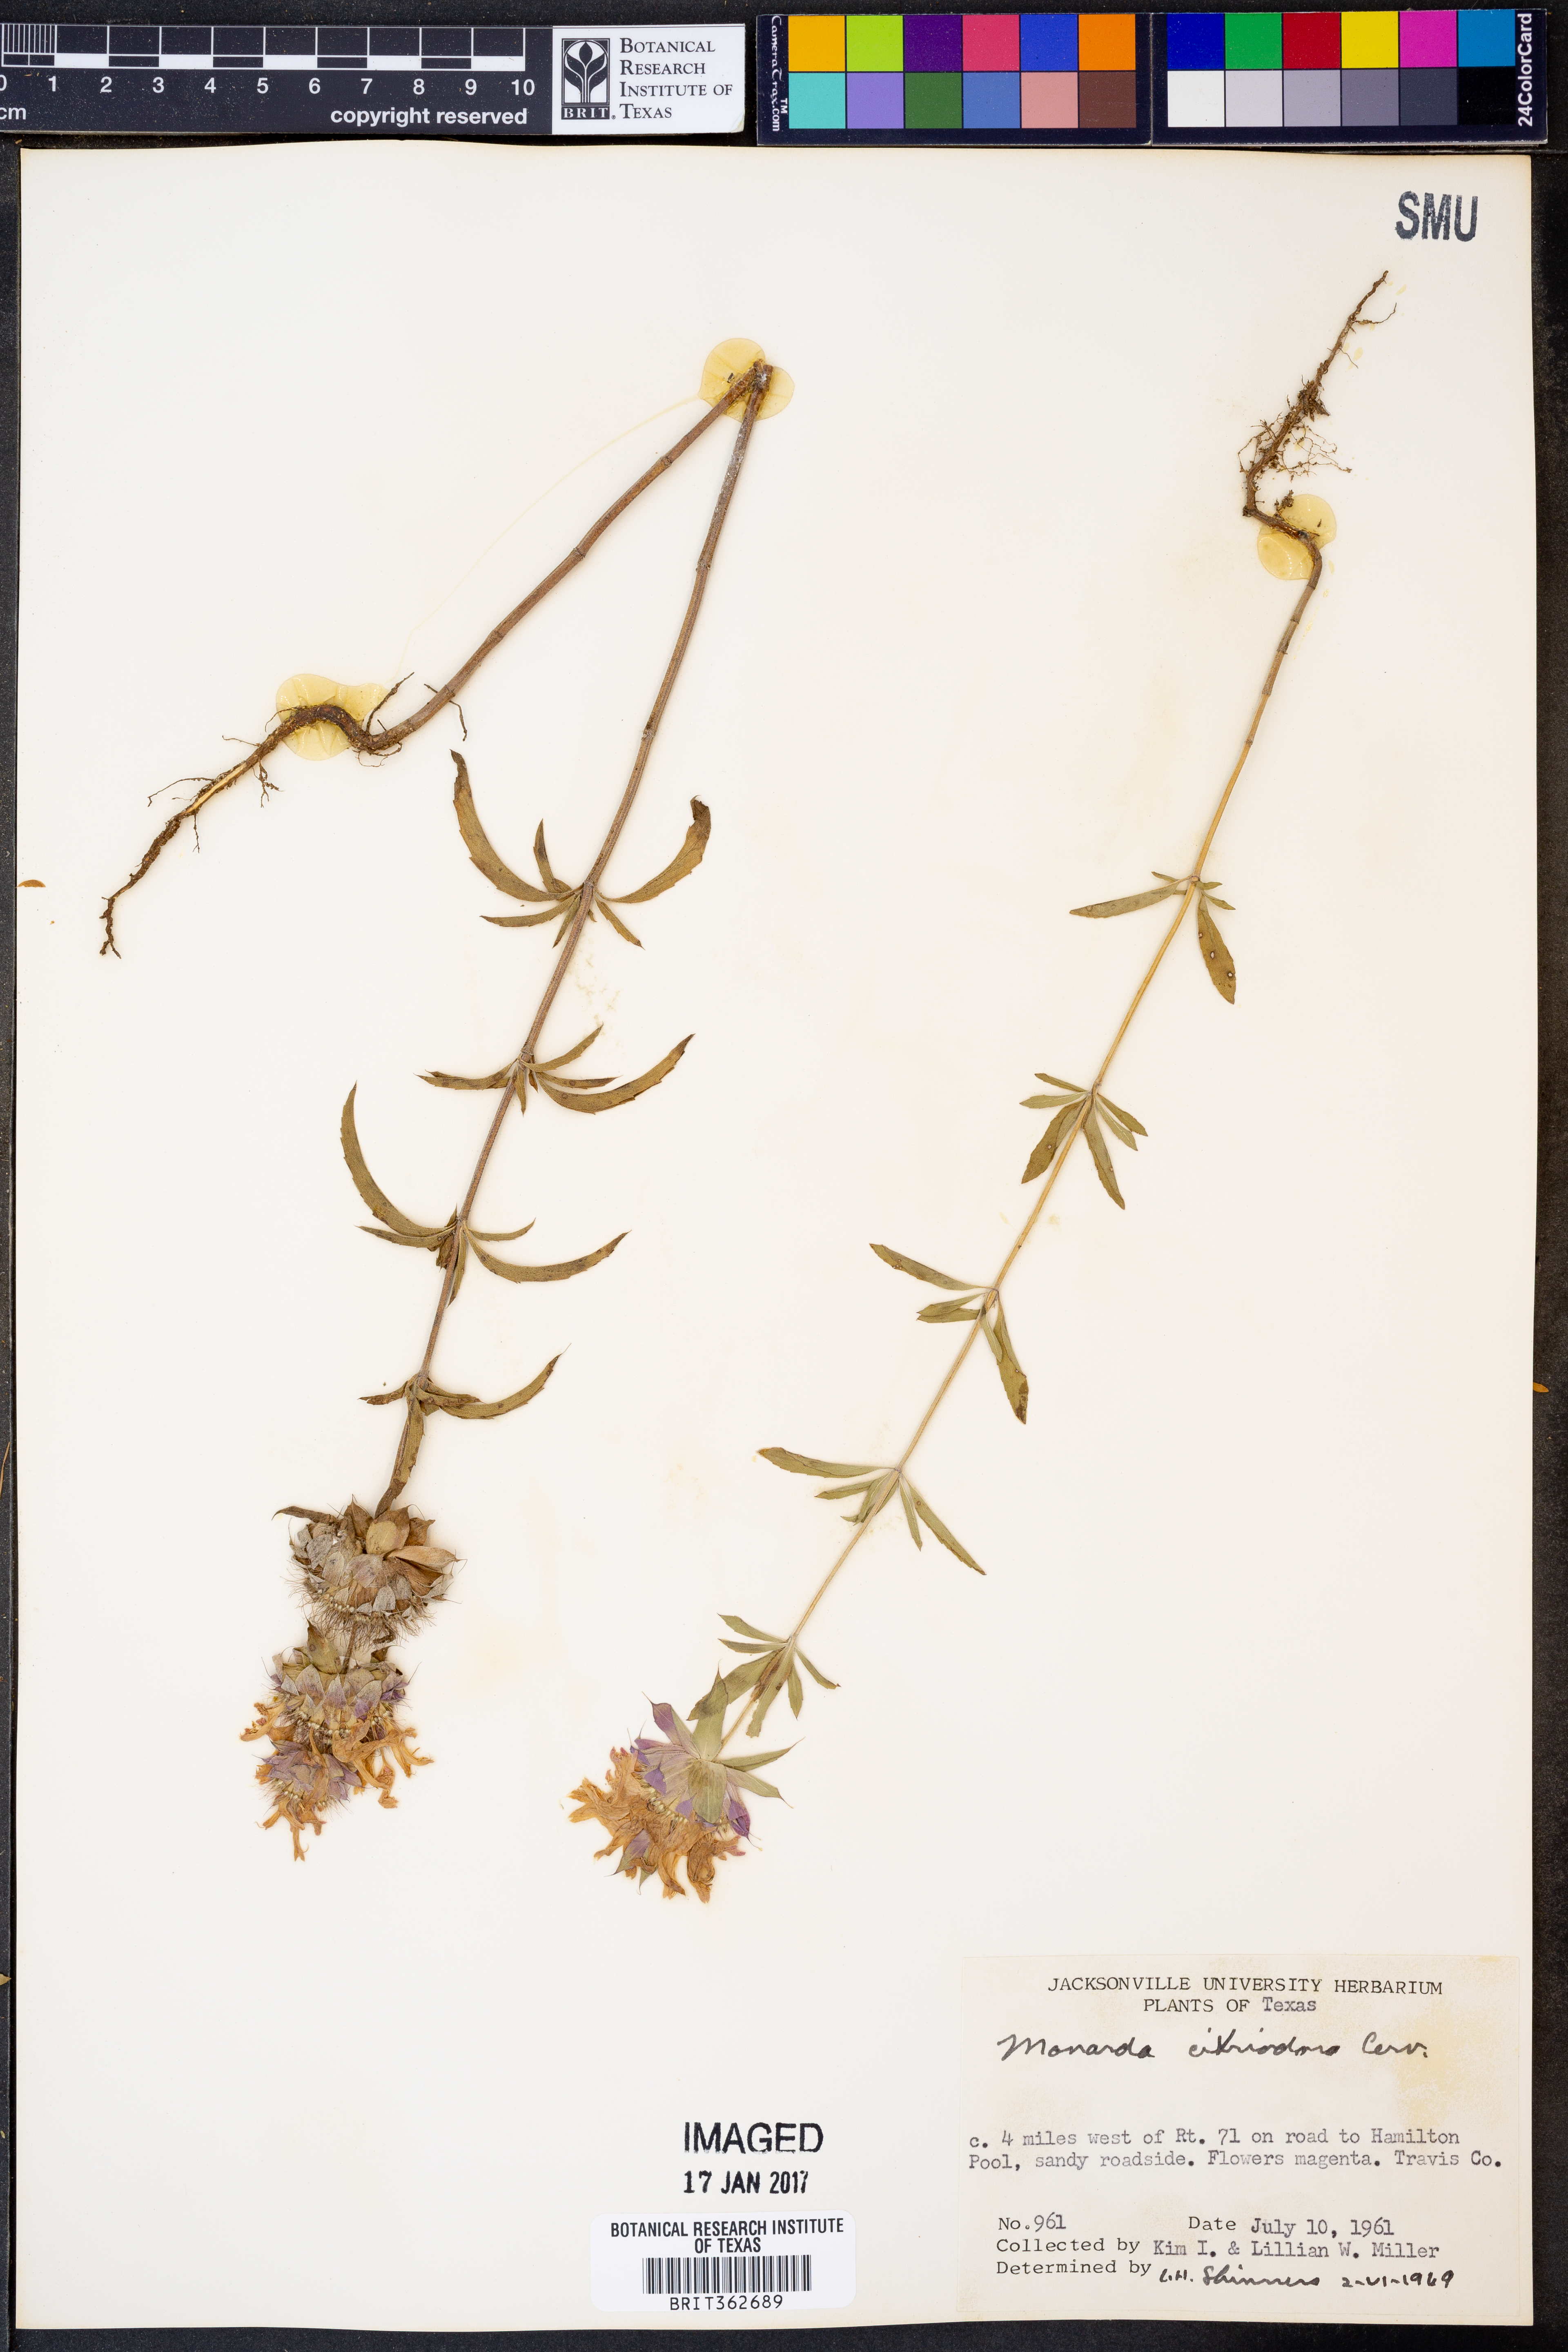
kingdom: Plantae
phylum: Tracheophyta
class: Magnoliopsida
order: Lamiales
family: Lamiaceae
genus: Monarda
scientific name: Monarda citriodora
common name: Lemon beebalm
